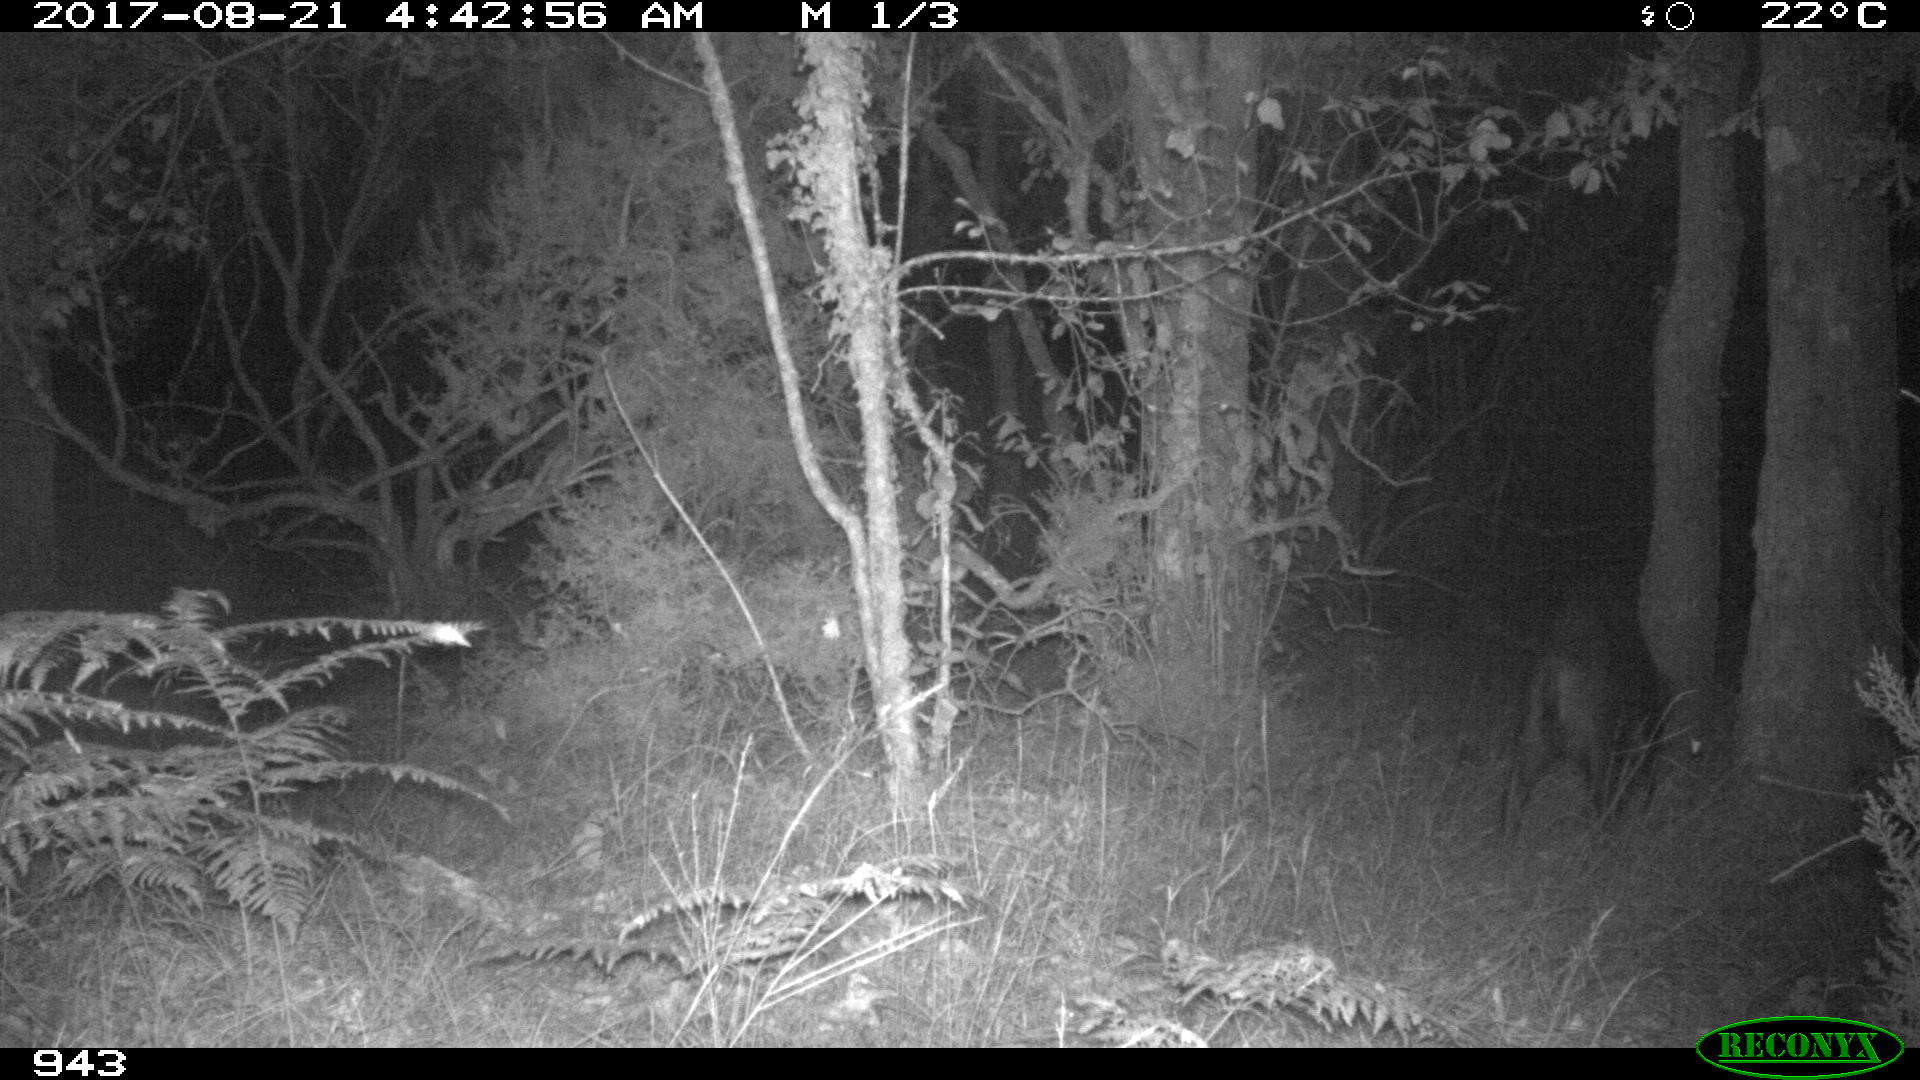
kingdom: Animalia
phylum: Chordata
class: Mammalia
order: Artiodactyla
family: Suidae
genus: Sus
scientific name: Sus scrofa
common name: Wild boar
